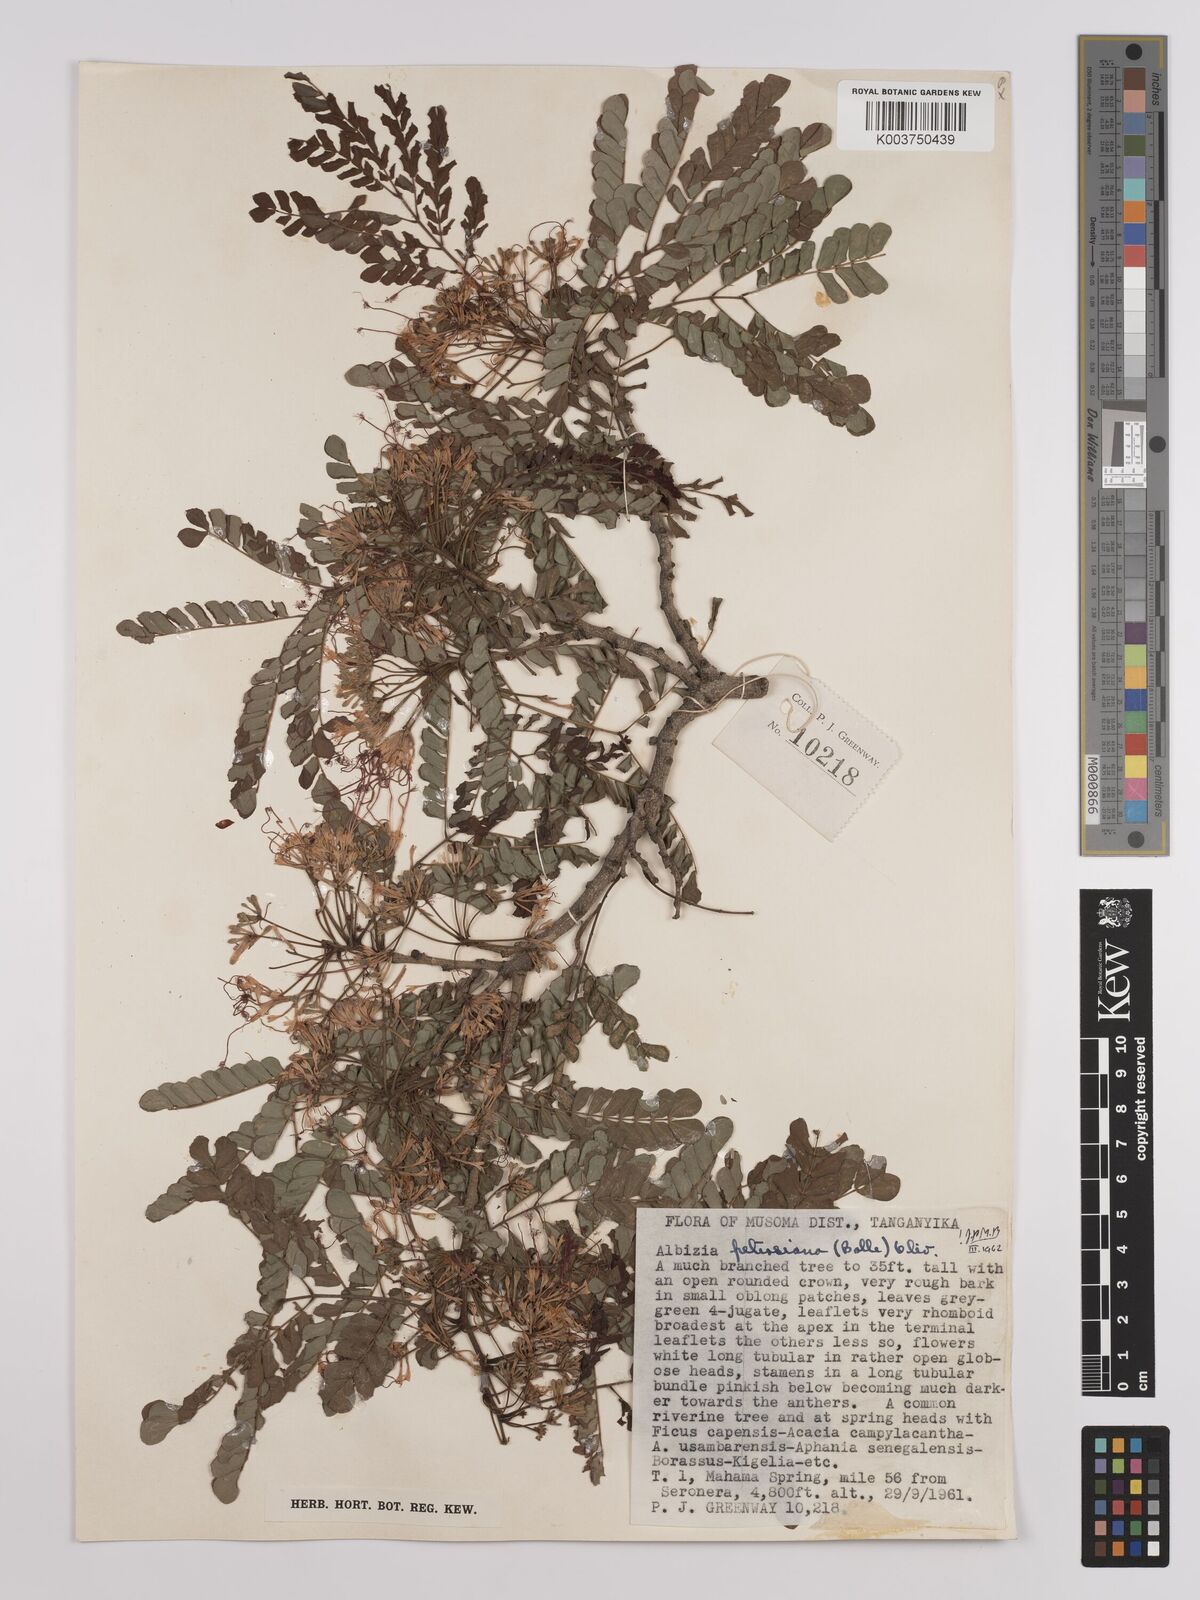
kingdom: Plantae
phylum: Tracheophyta
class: Magnoliopsida
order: Fabales
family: Fabaceae
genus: Albizia
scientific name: Albizia petersiana
